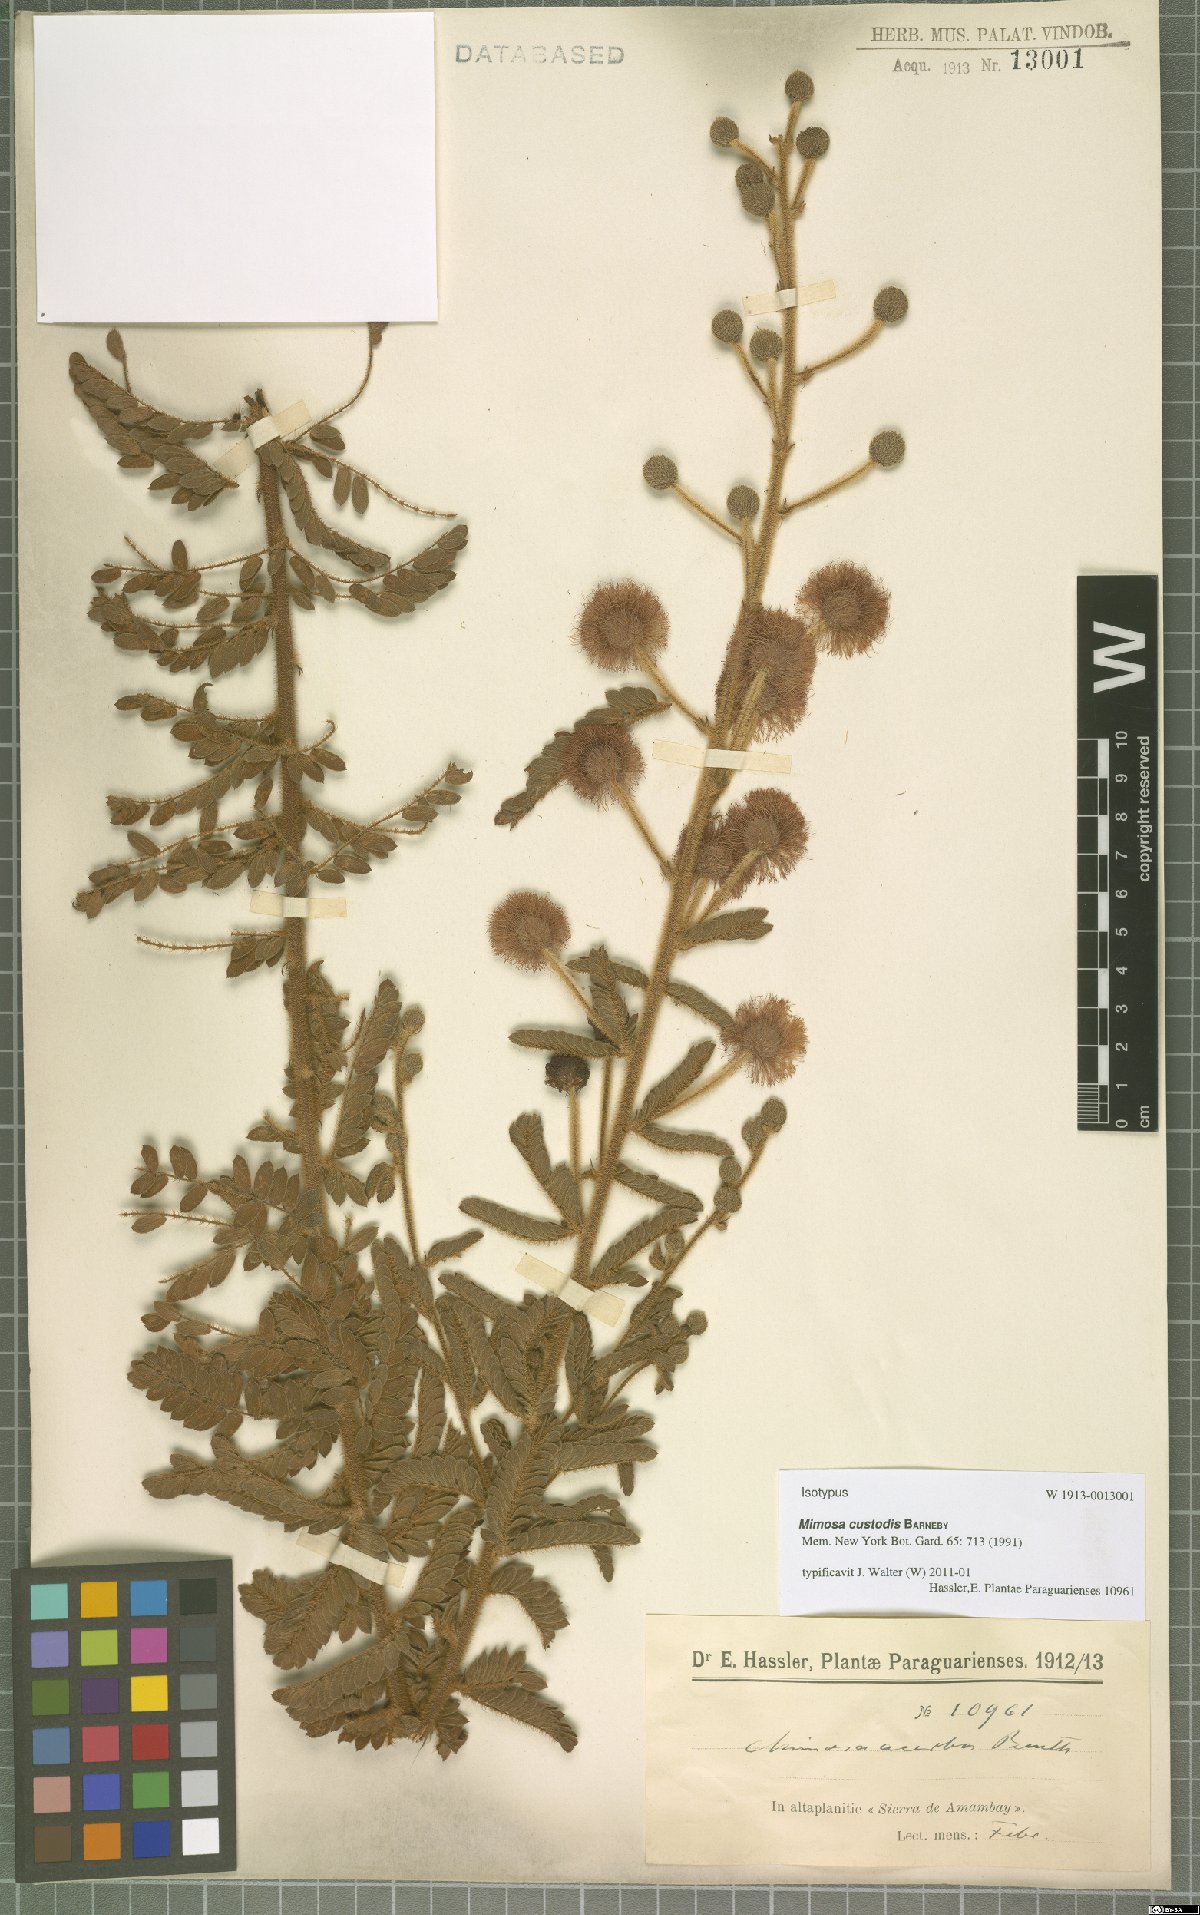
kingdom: Plantae
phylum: Tracheophyta
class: Magnoliopsida
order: Fabales
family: Fabaceae
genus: Mimosa
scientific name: Mimosa custodis
